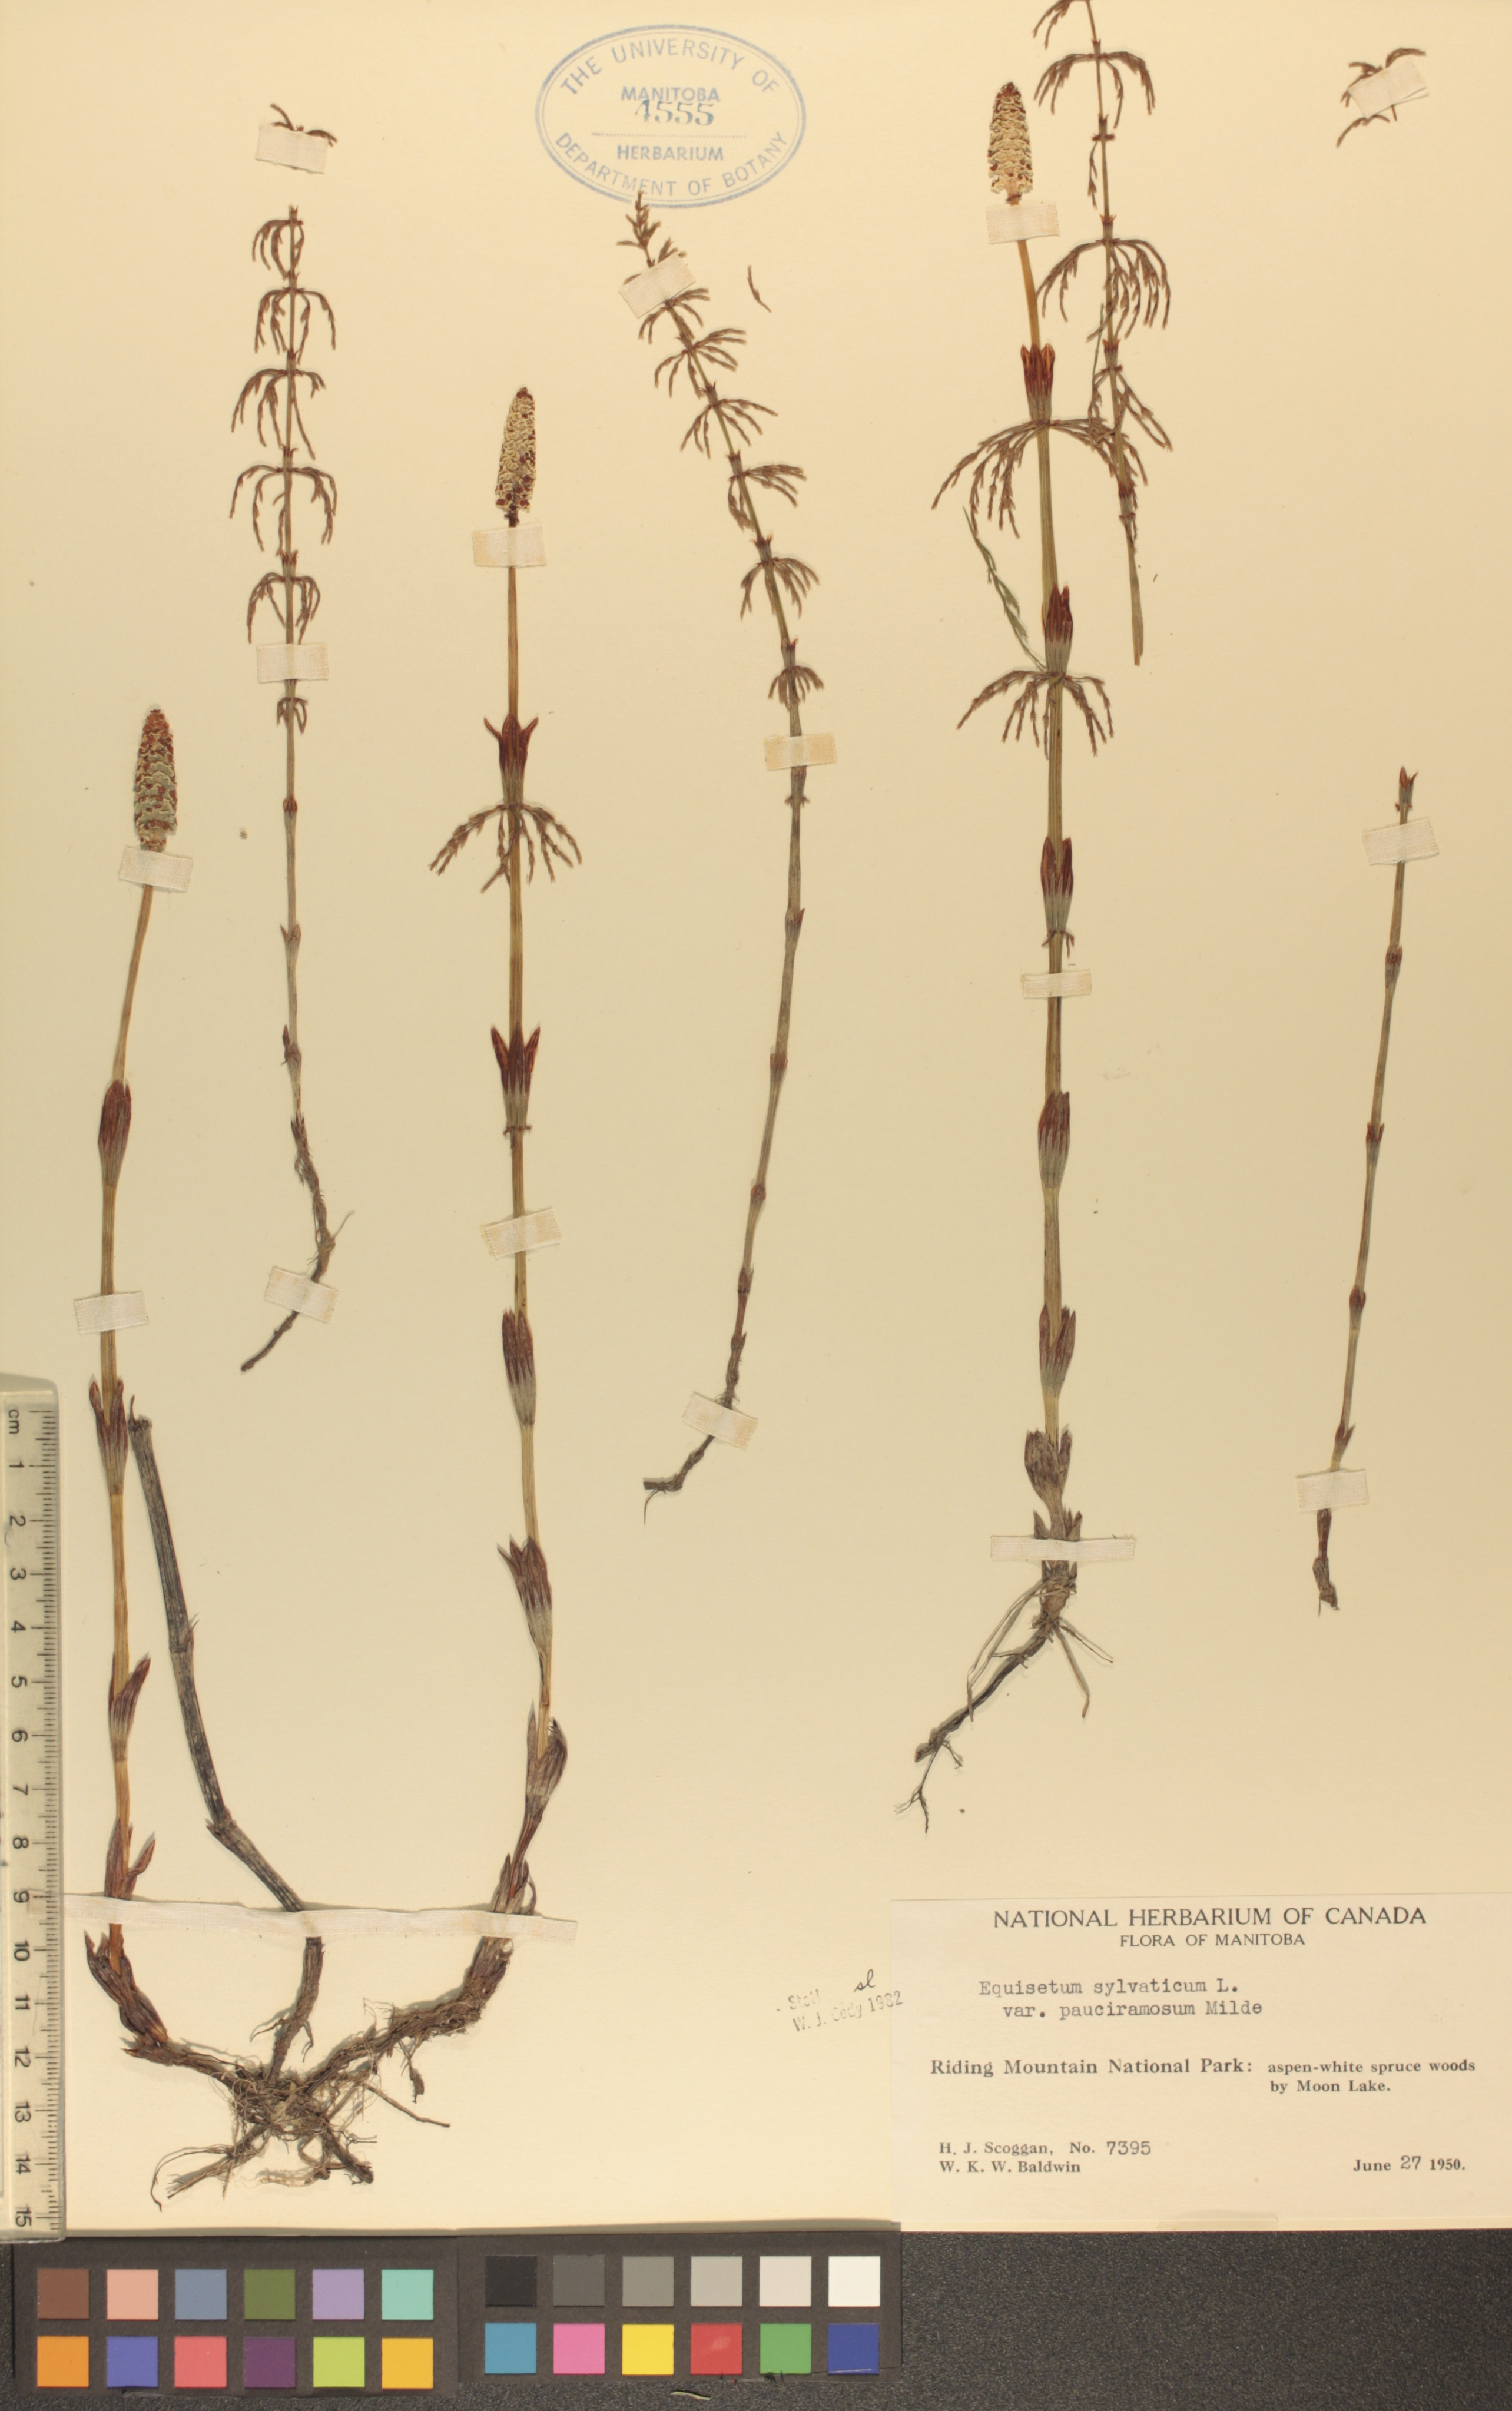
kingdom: Plantae
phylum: Tracheophyta
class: Polypodiopsida
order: Equisetales
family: Equisetaceae
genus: Equisetum
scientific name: Equisetum sylvaticum
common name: Wood horsetail
